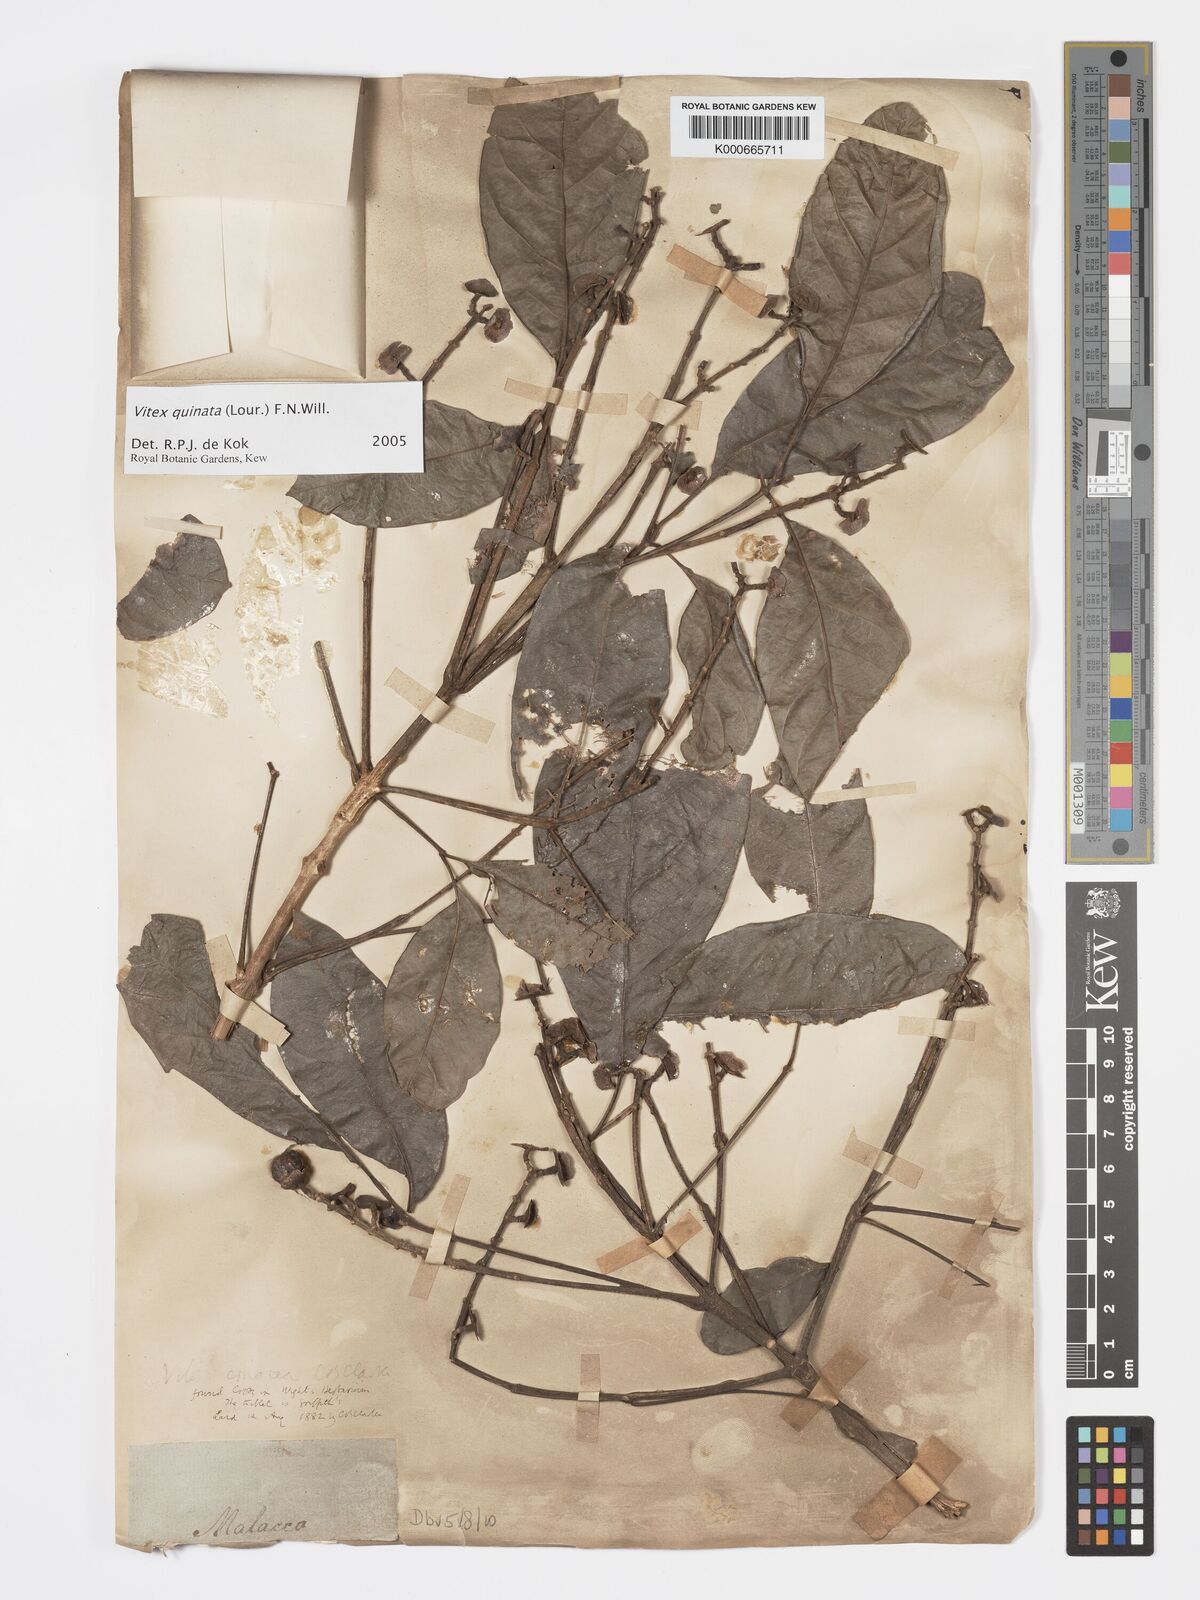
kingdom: Plantae
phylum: Tracheophyta
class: Magnoliopsida
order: Lamiales
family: Lamiaceae
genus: Vitex
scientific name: Vitex quinata
